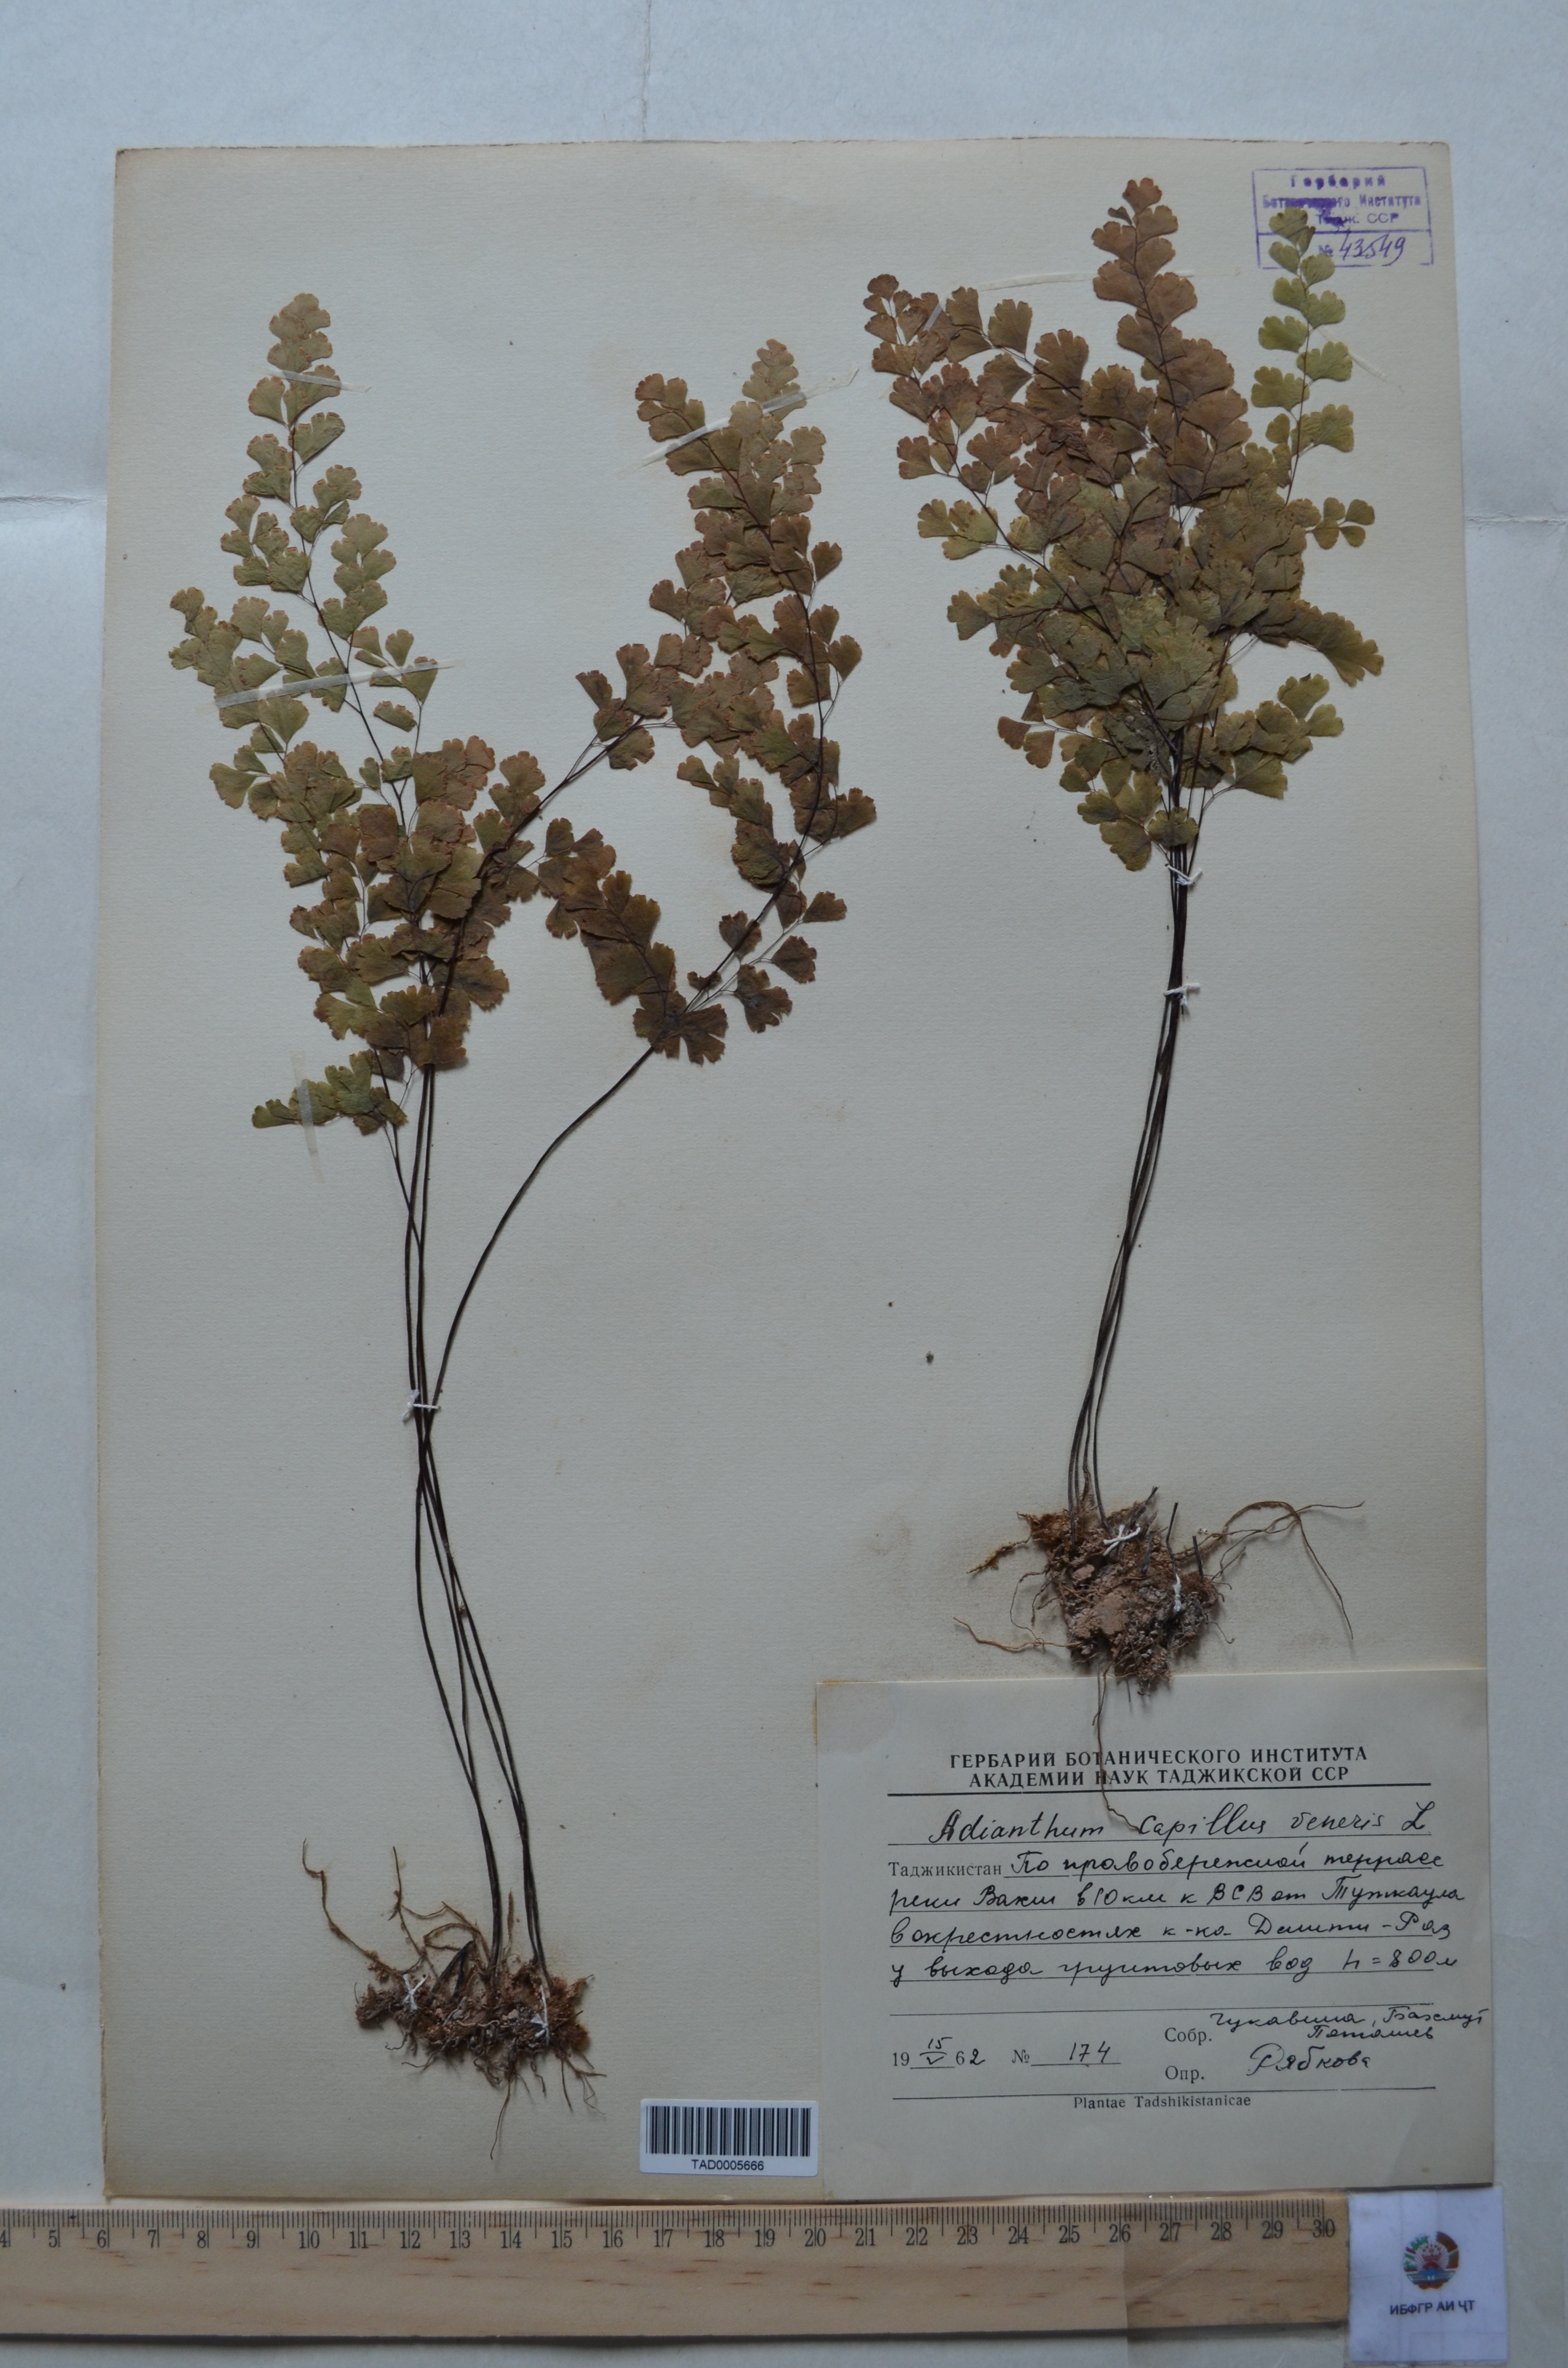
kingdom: Plantae
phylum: Tracheophyta
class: Polypodiopsida
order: Polypodiales
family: Pteridaceae
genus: Adiantum
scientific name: Adiantum capillus-veneris
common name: Maidenhair fern
